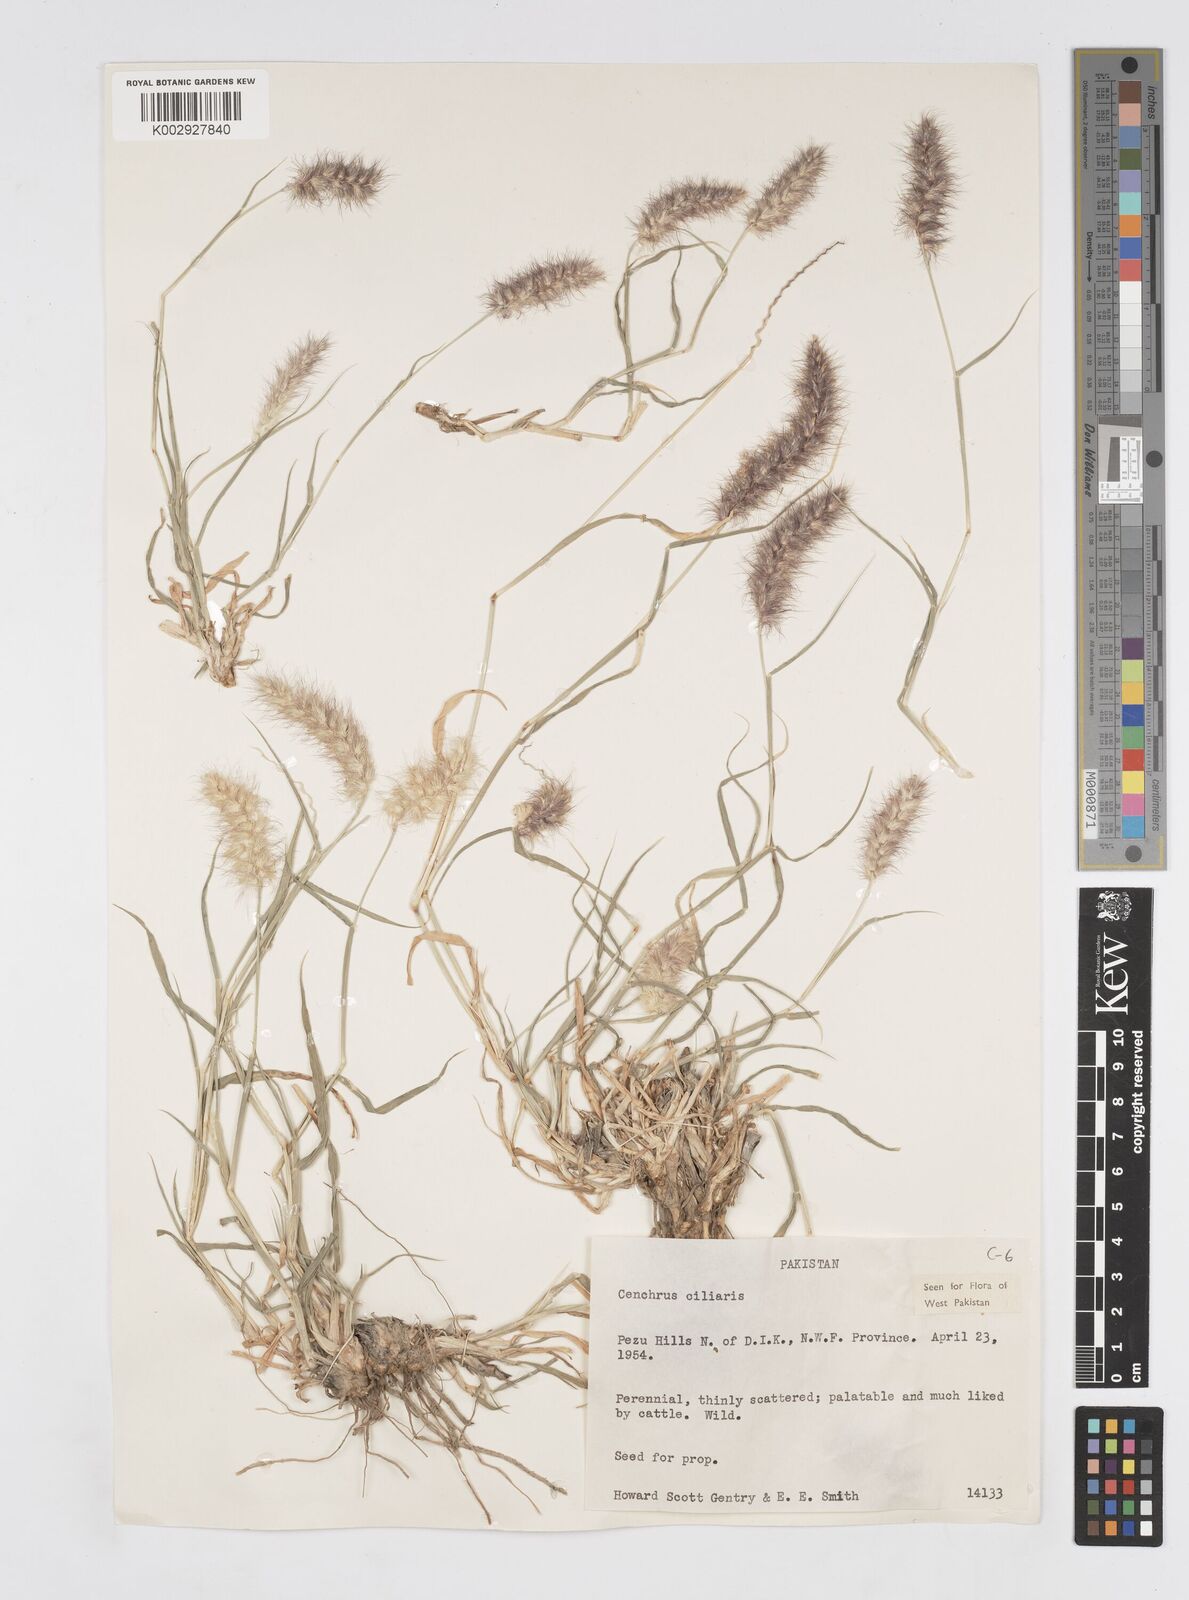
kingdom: Plantae
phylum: Tracheophyta
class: Liliopsida
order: Poales
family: Poaceae
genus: Cenchrus
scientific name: Cenchrus ciliaris
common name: Buffelgrass
